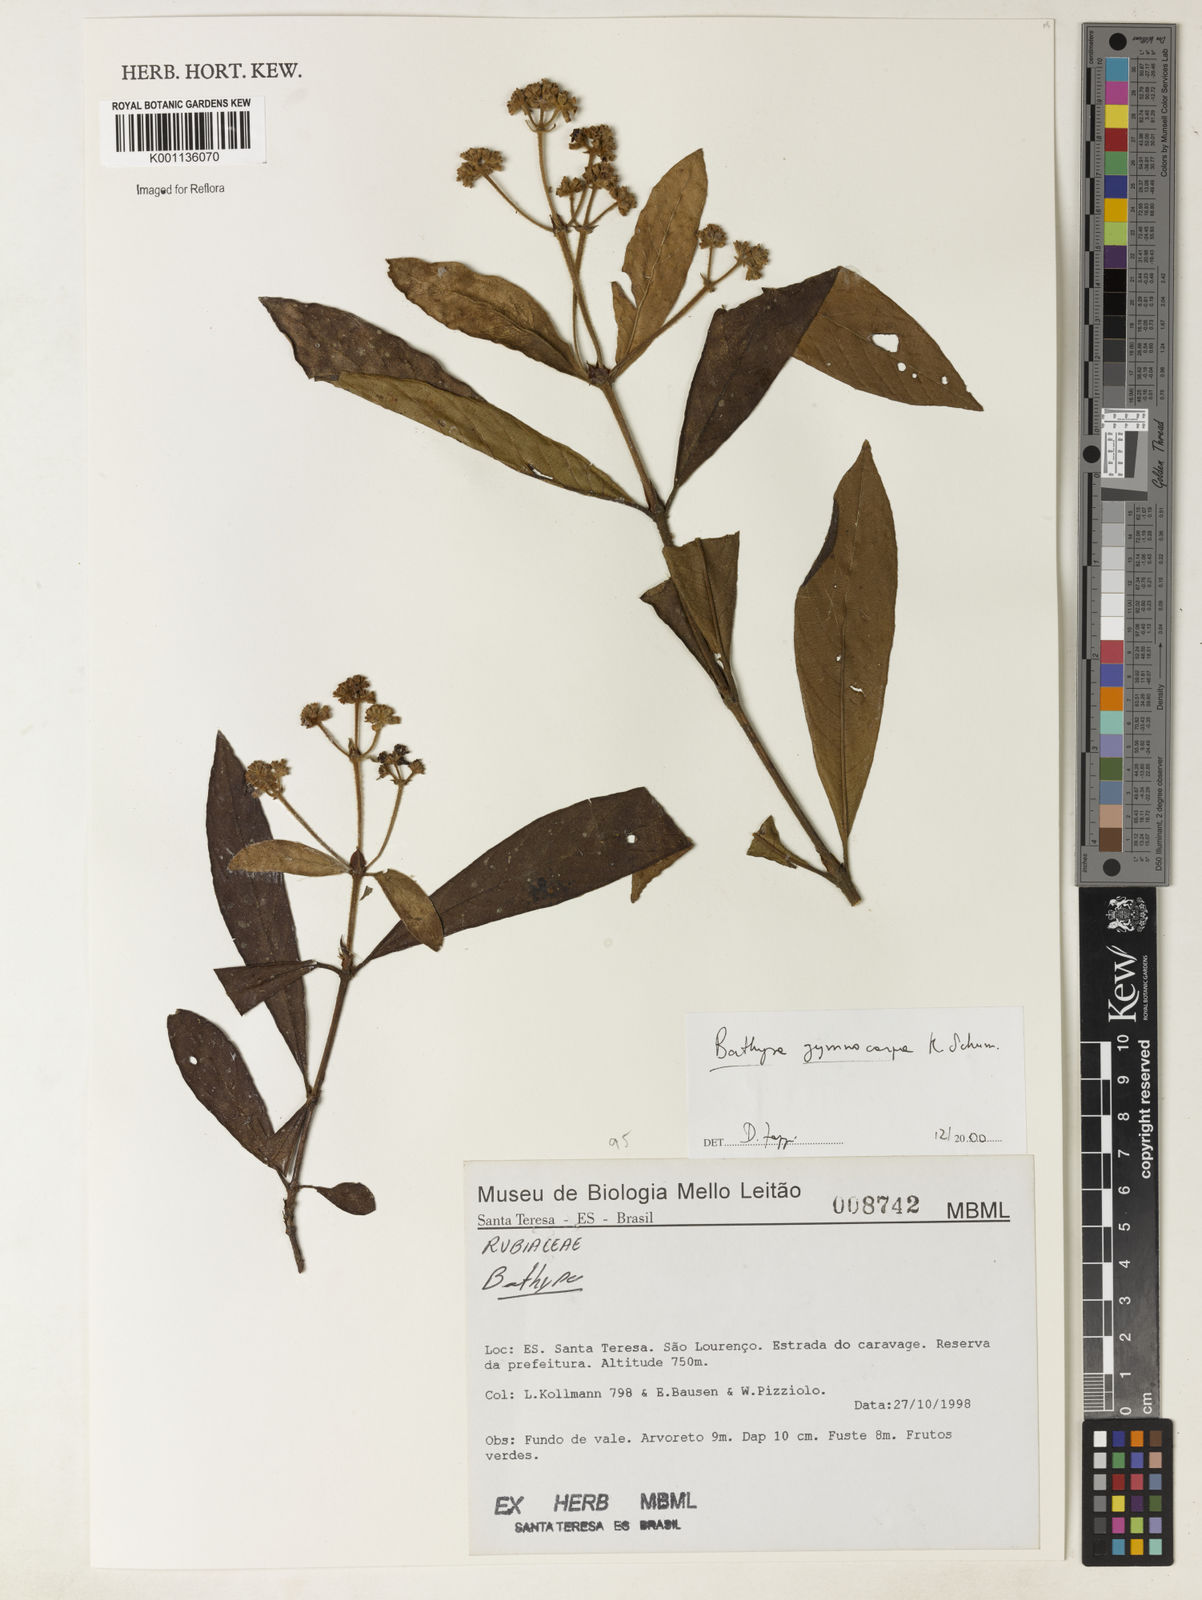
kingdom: Plantae
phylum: Tracheophyta
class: Magnoliopsida
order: Gentianales
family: Rubiaceae
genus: Bathysa
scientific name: Bathysa gymnocarpa
